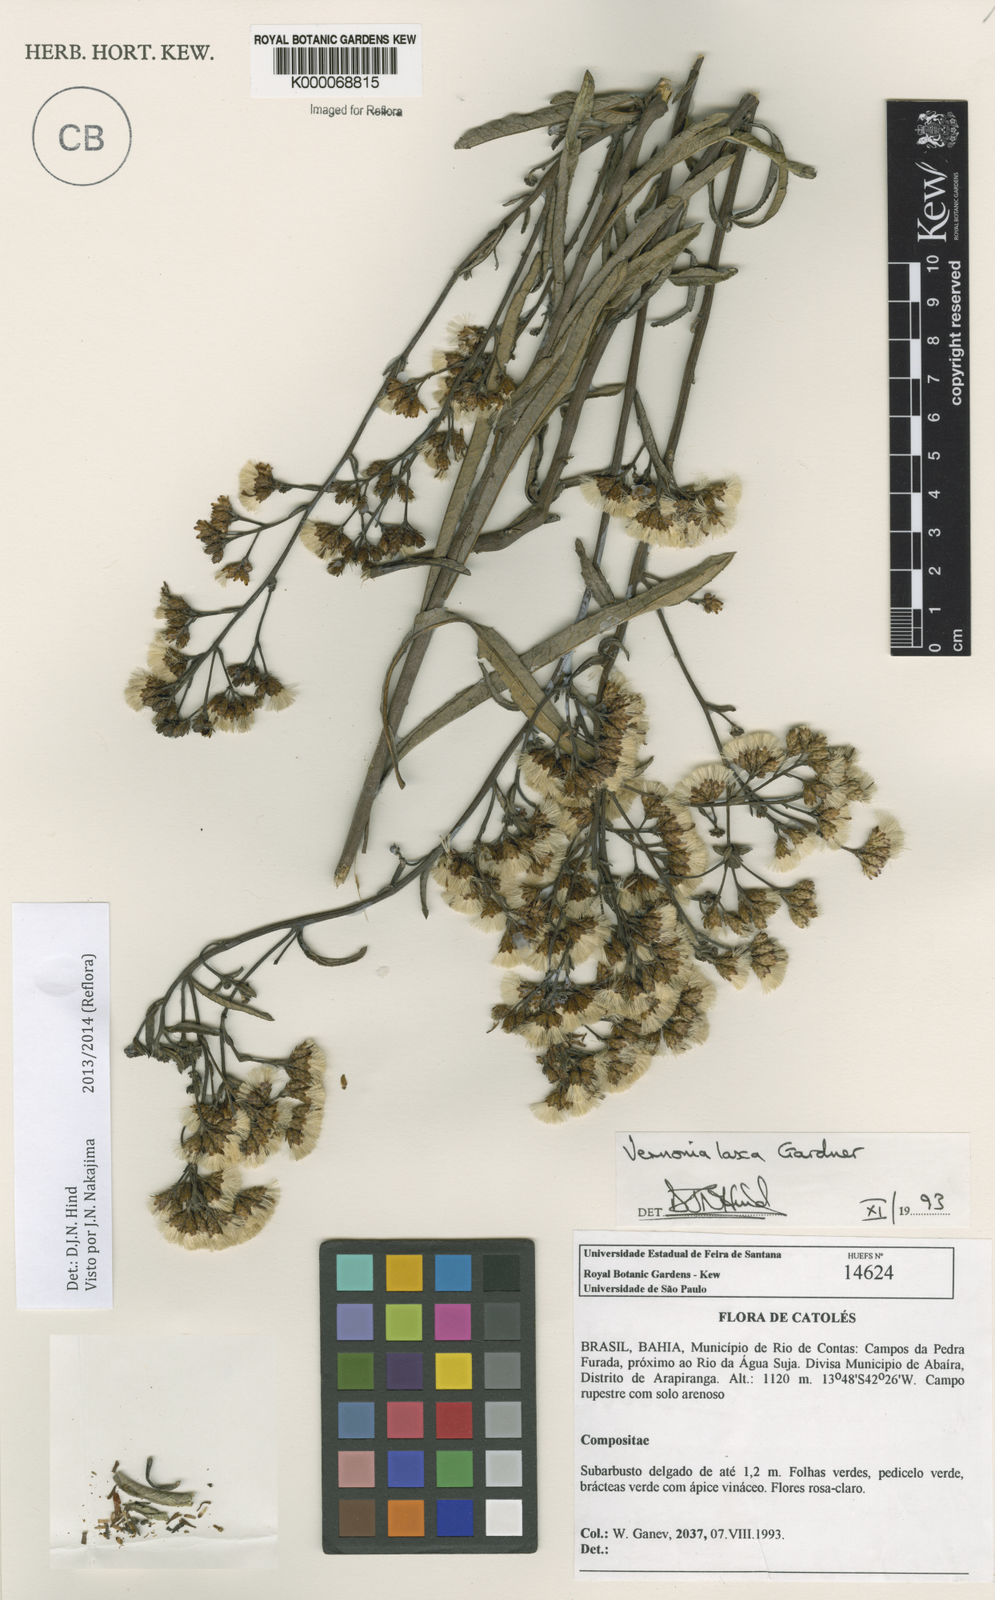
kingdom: Plantae
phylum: Tracheophyta
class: Magnoliopsida
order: Asterales
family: Asteraceae
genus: Vernonanthura
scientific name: Vernonanthura laxa
